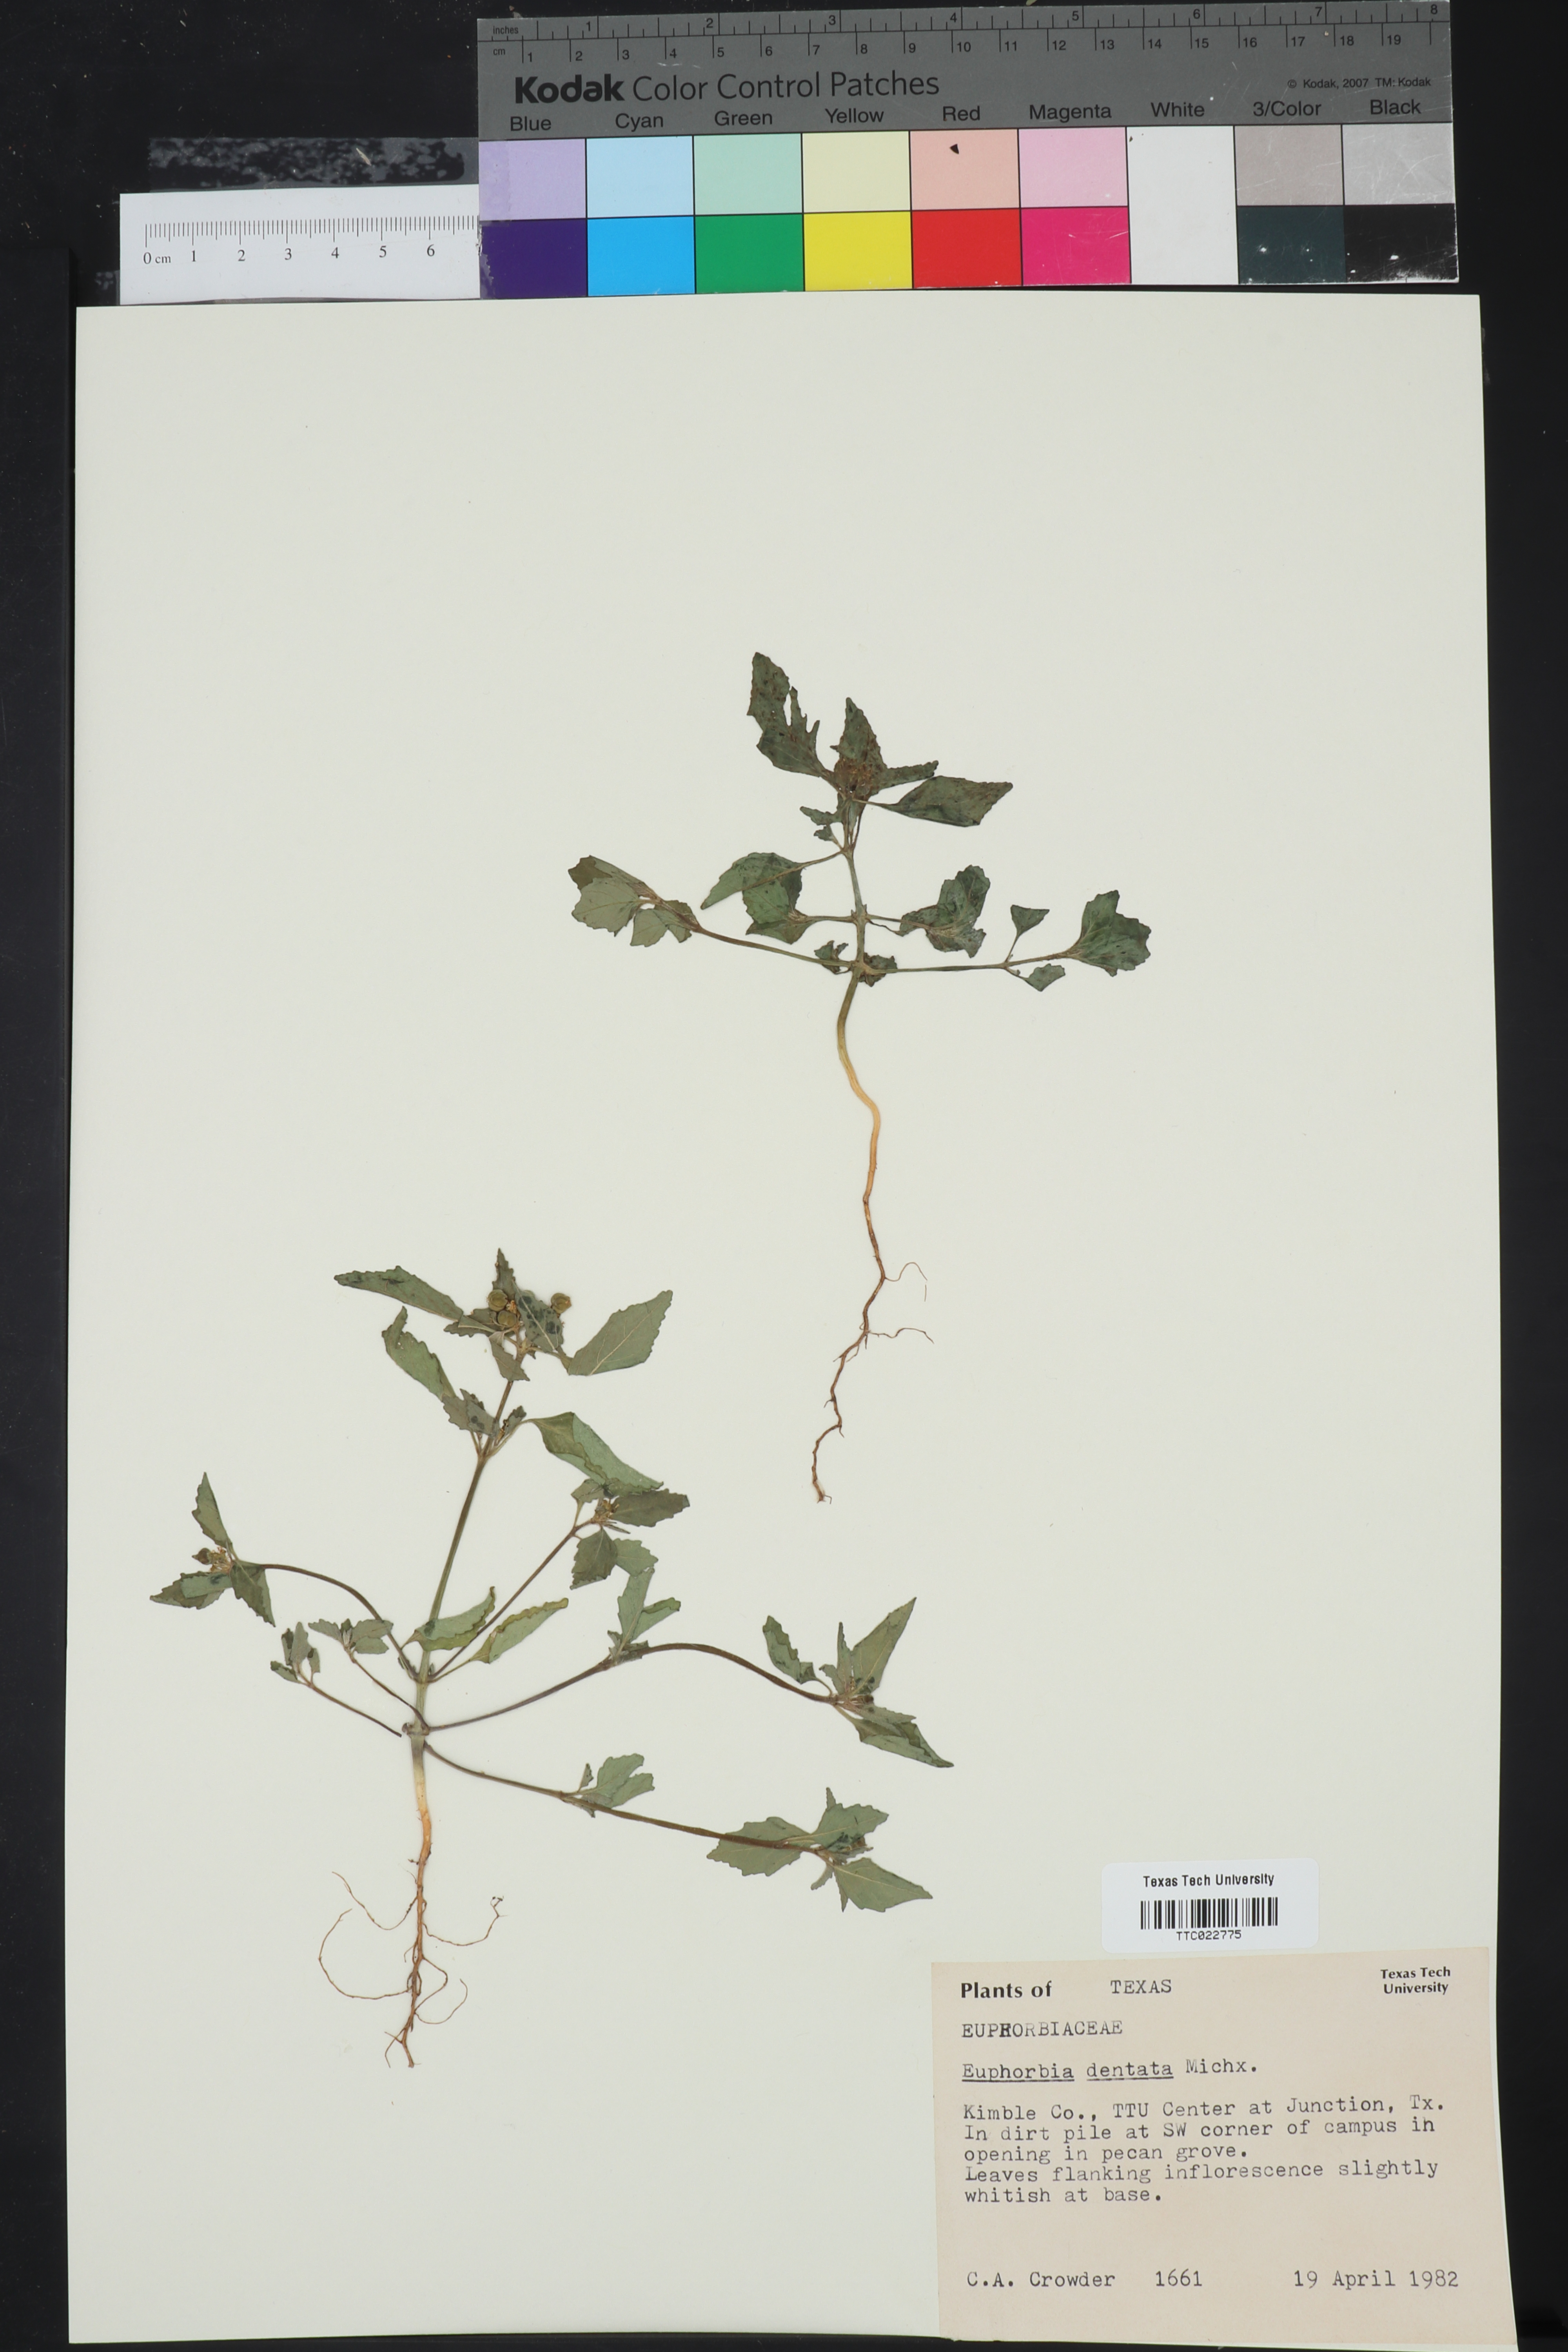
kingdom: Plantae
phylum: Tracheophyta
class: Magnoliopsida
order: Malpighiales
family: Euphorbiaceae
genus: Euphorbia
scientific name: Euphorbia dentata
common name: Dentate spurge
